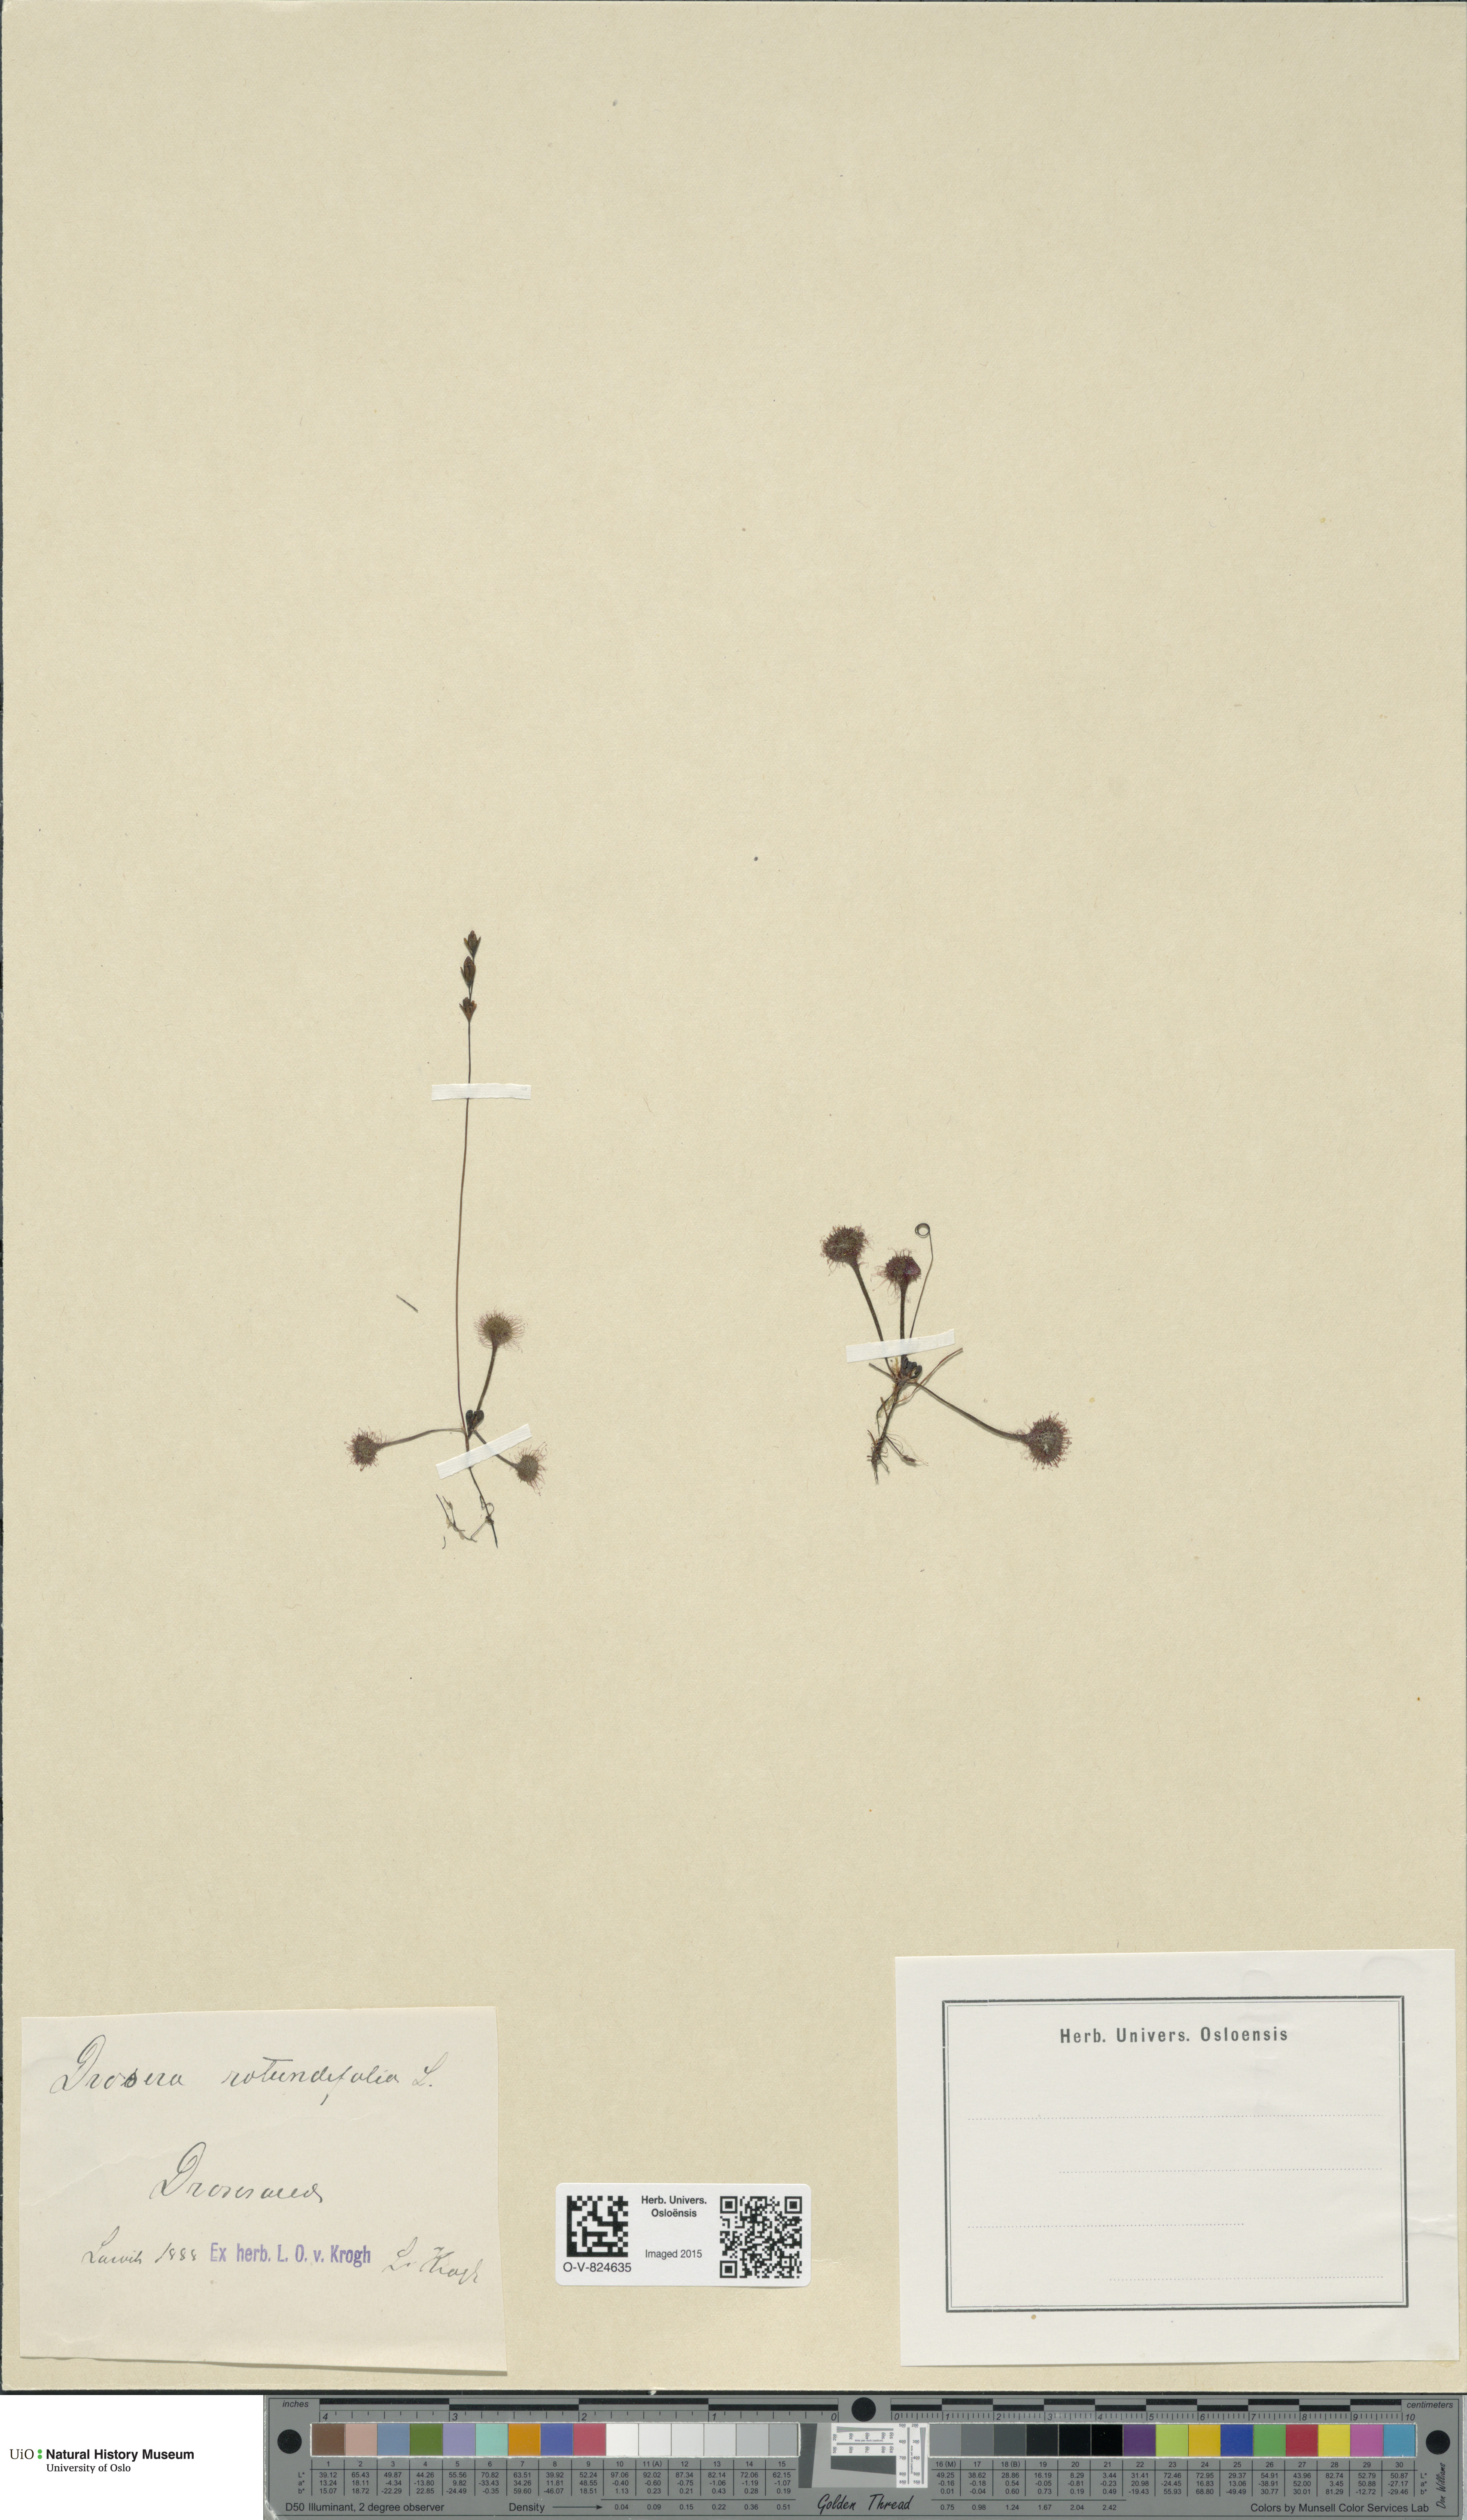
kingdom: Plantae
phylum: Tracheophyta
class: Magnoliopsida
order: Caryophyllales
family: Droseraceae
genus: Drosera
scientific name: Drosera rotundifolia
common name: Round-leaved sundew
